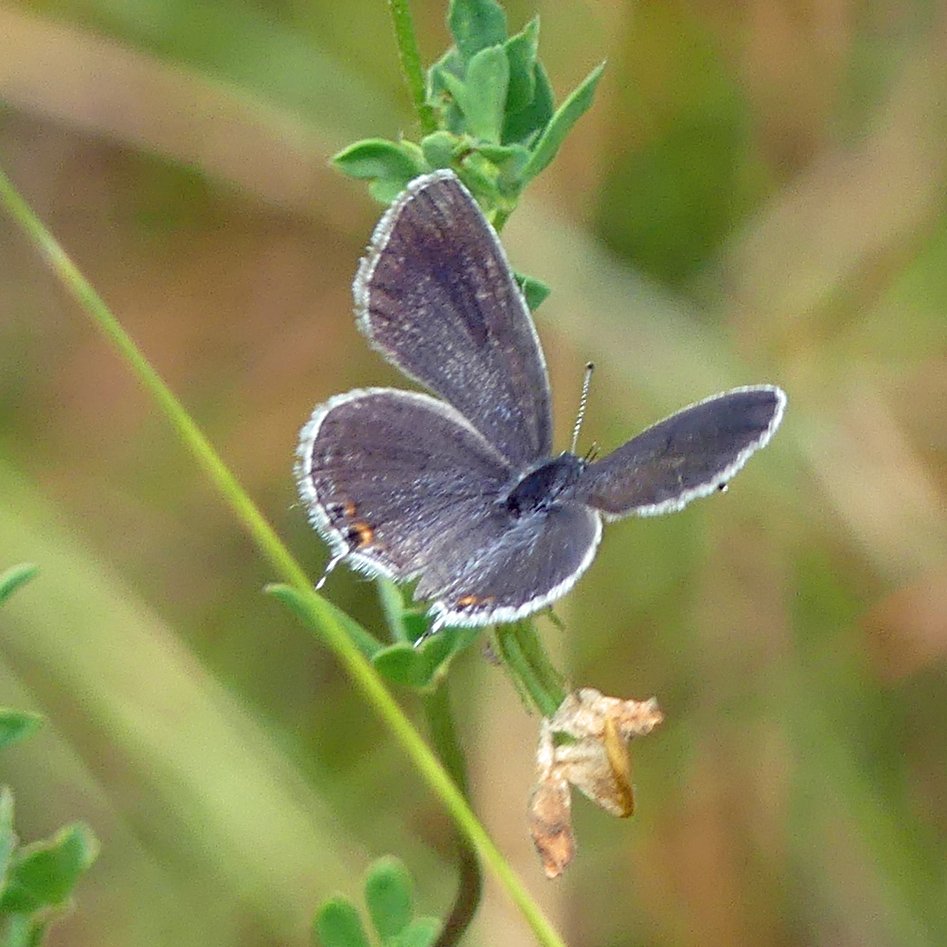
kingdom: Animalia
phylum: Arthropoda
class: Insecta
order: Lepidoptera
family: Lycaenidae
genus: Elkalyce
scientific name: Elkalyce comyntas
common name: Eastern Tailed-Blue
